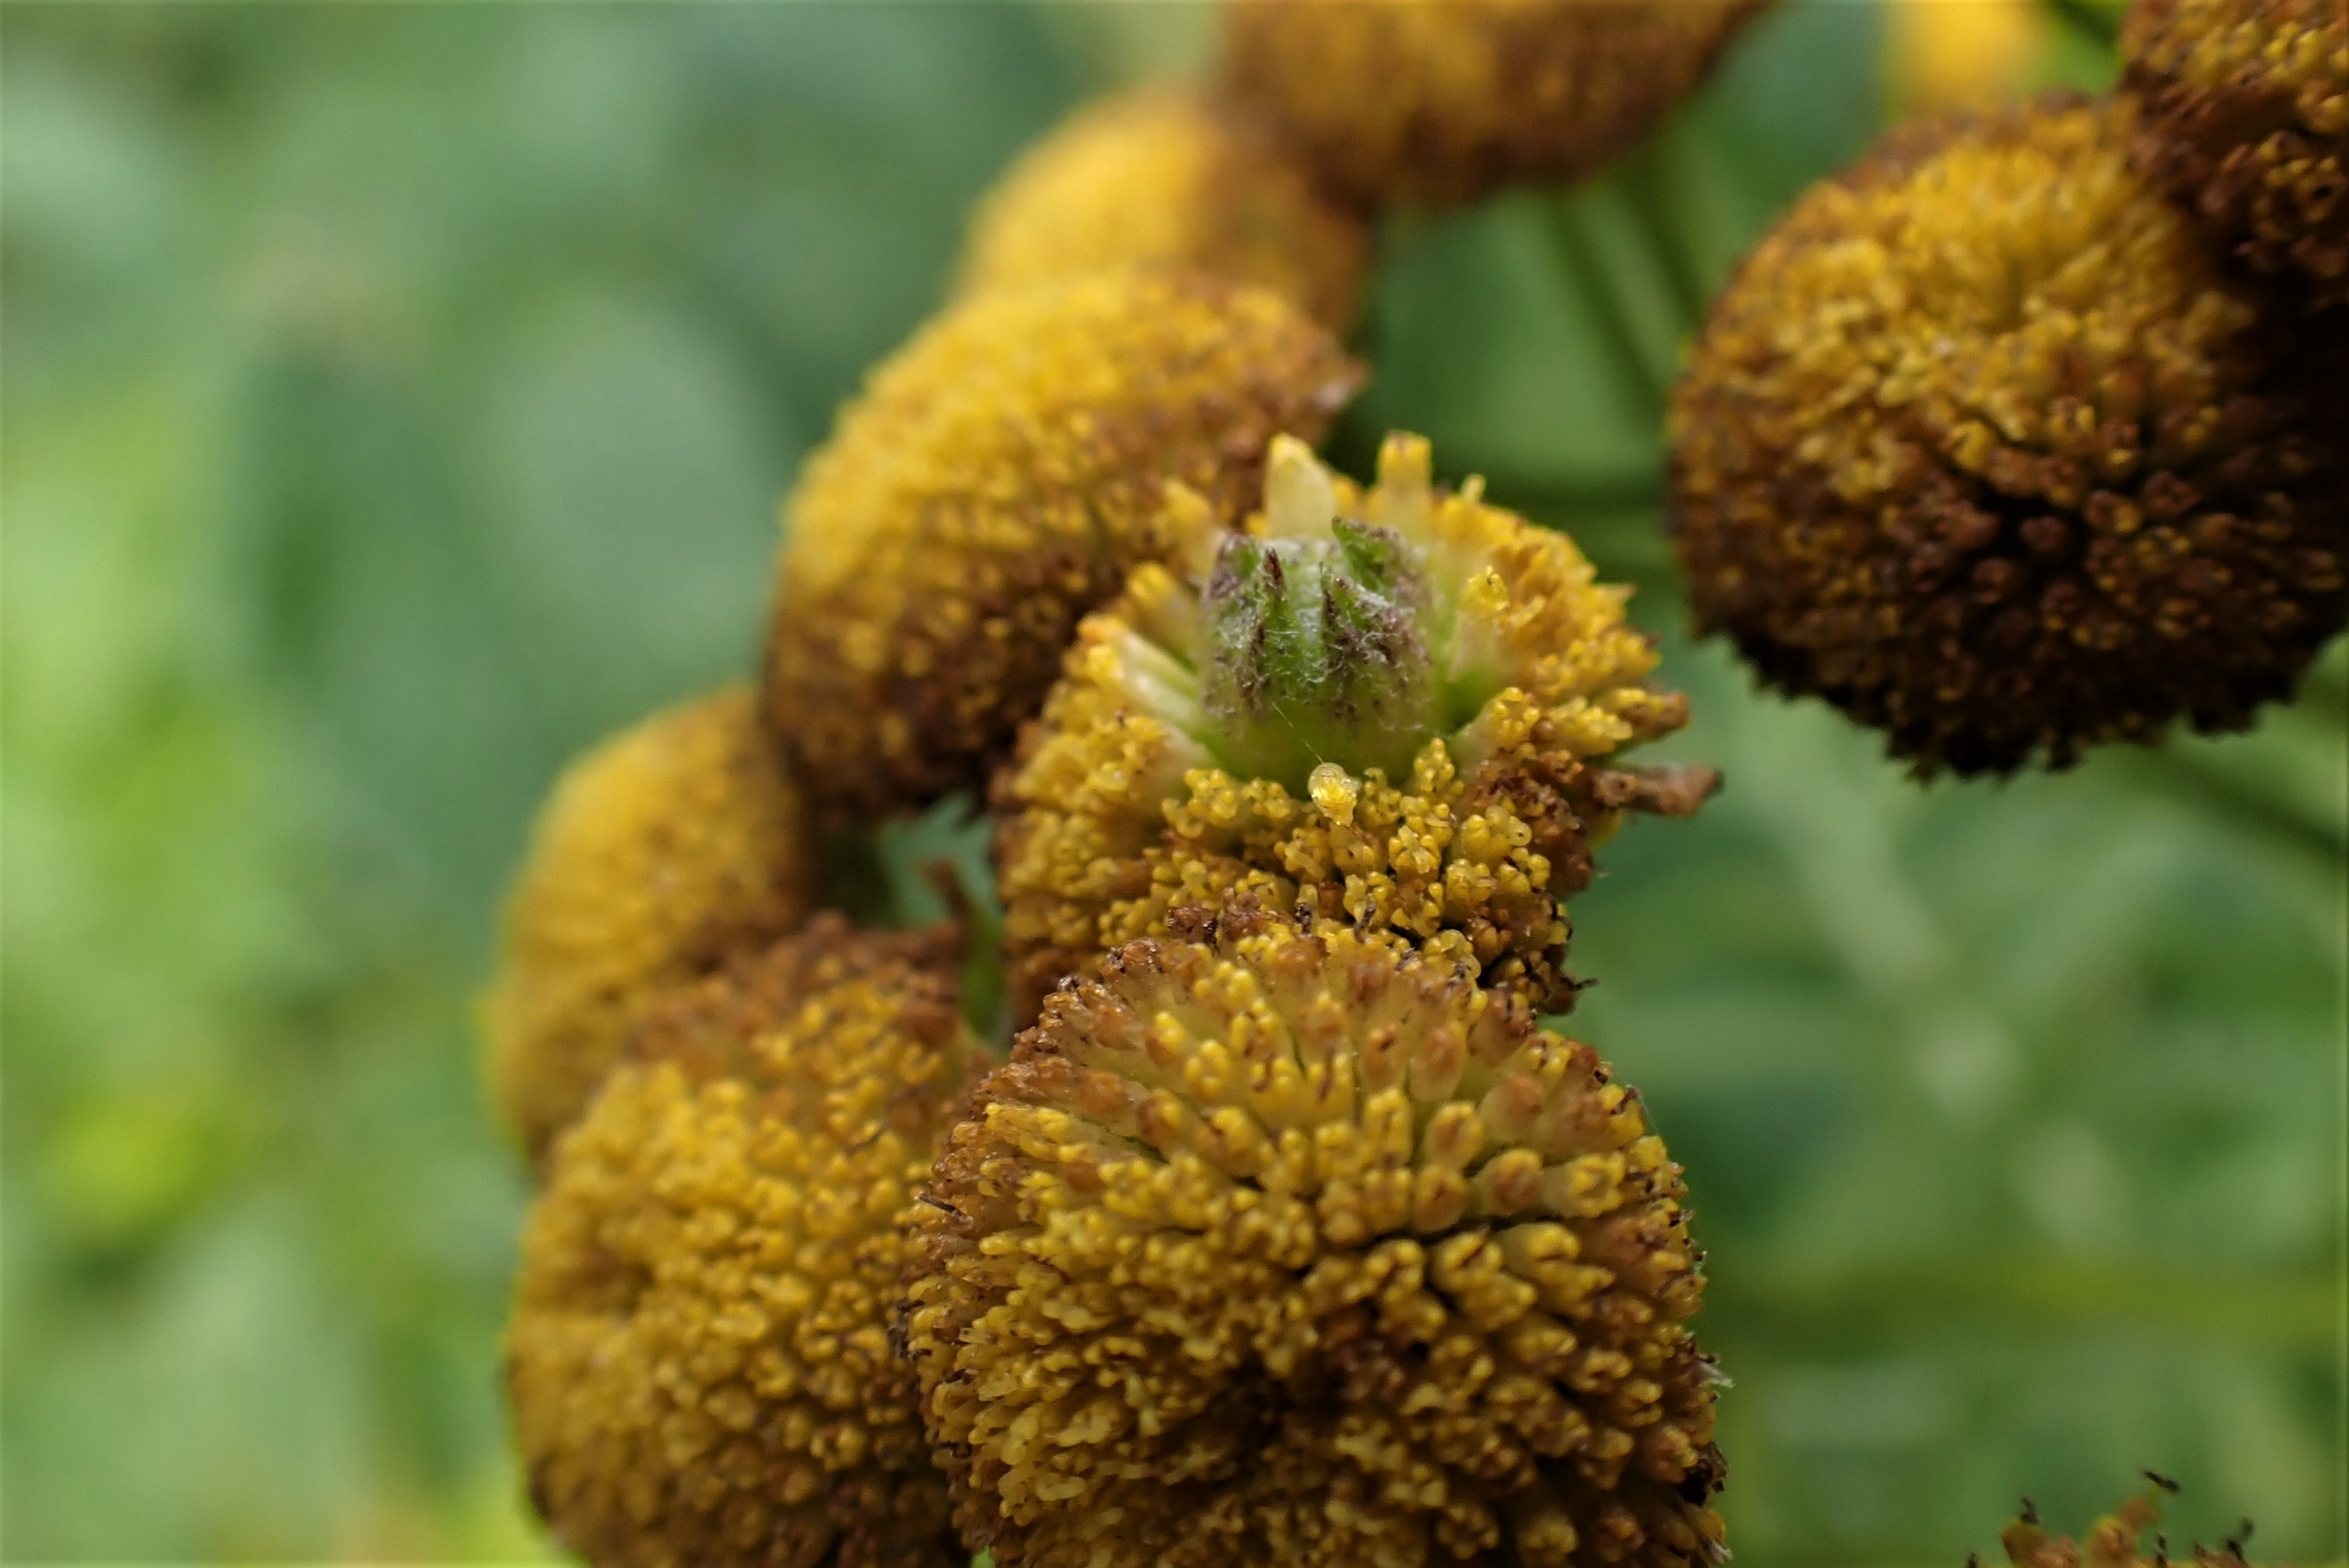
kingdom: Animalia
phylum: Arthropoda
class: Insecta
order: Diptera
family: Cecidomyiidae
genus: Rhopalomyia
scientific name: Rhopalomyia tanaceticolus
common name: Rejnfangalmyg
